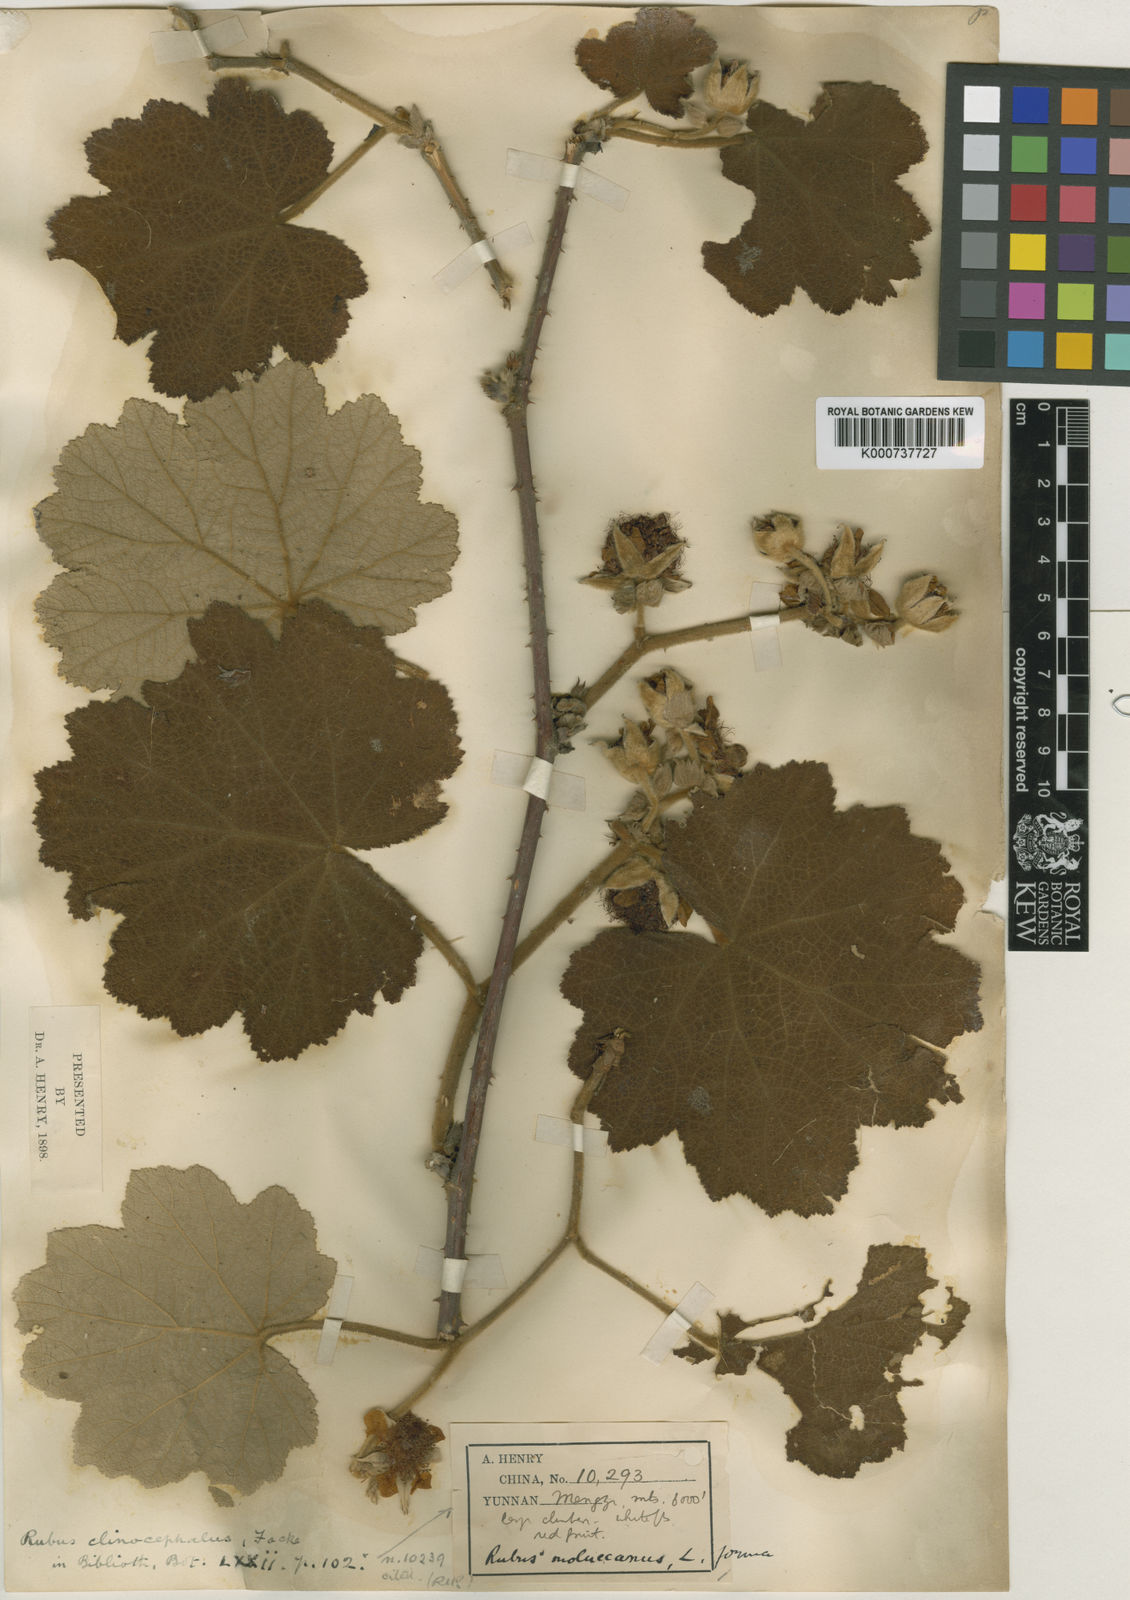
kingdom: Plantae
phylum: Tracheophyta
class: Magnoliopsida
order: Rosales
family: Rosaceae
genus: Rubus
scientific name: Rubus clinocephalus
